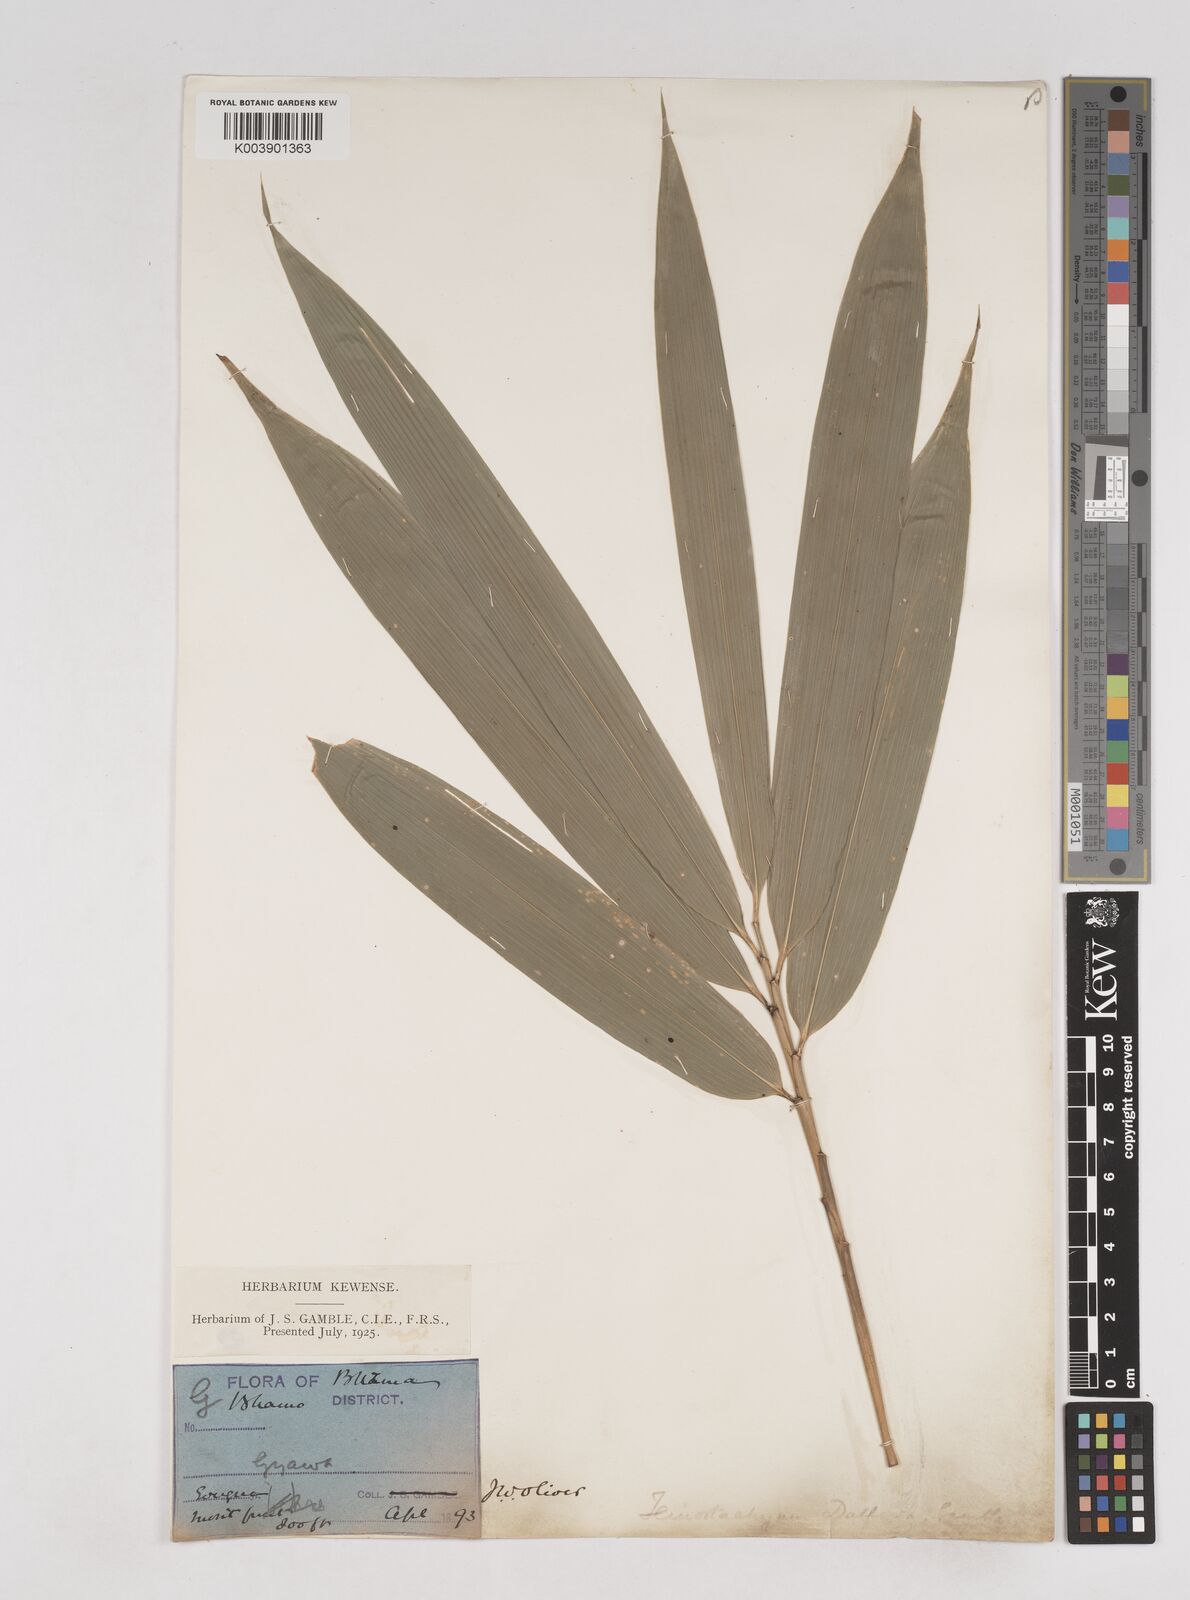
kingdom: Plantae
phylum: Tracheophyta
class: Liliopsida
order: Poales
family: Poaceae
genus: Schizostachyum
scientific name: Schizostachyum dullooa
